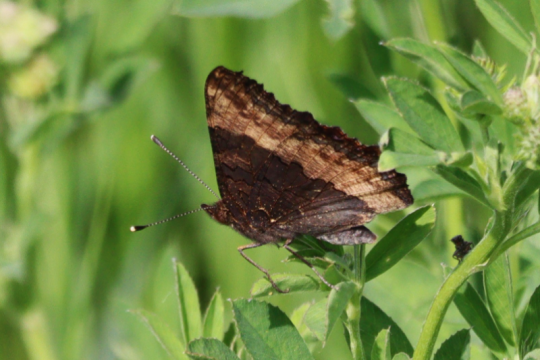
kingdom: Animalia
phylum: Arthropoda
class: Insecta
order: Lepidoptera
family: Nymphalidae
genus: Aglais
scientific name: Aglais milberti
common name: Milbert's Tortoiseshell
